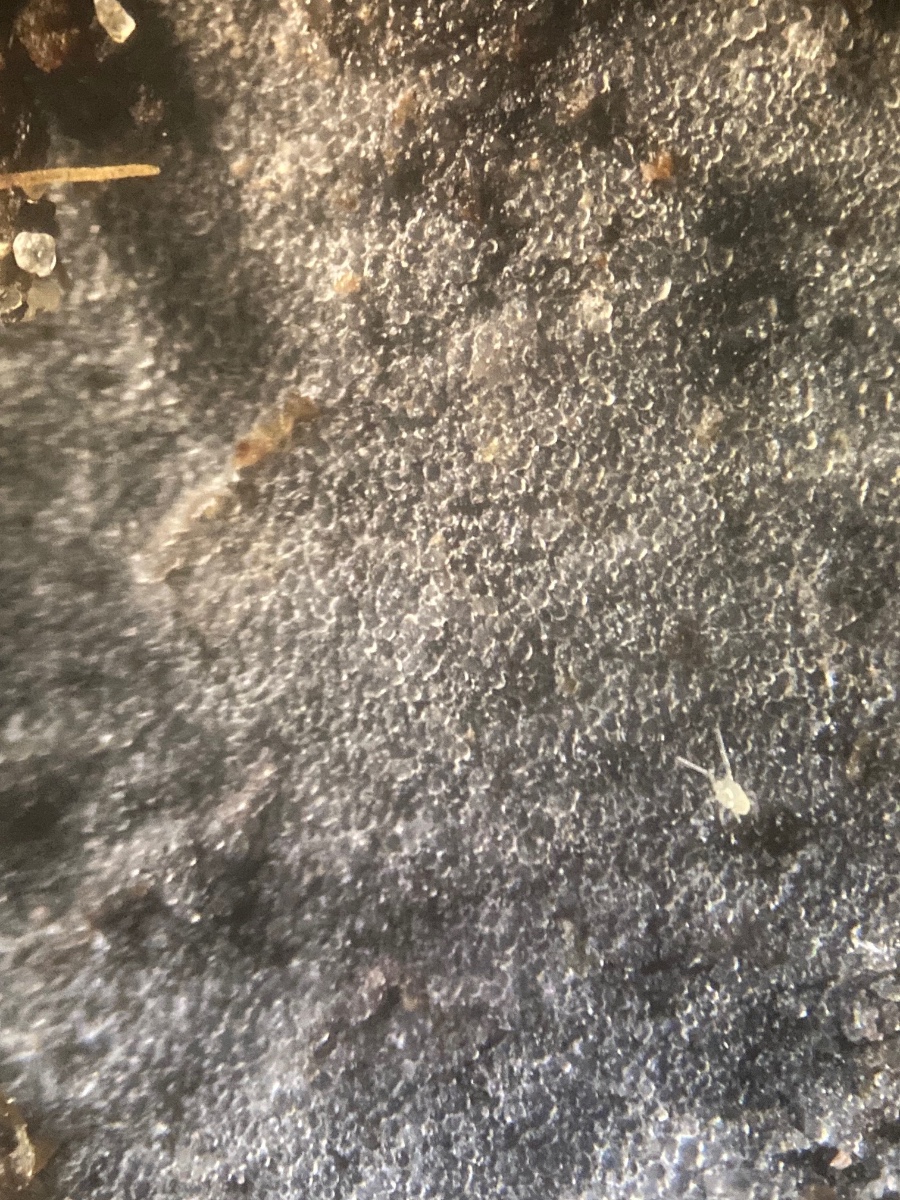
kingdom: Fungi
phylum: Basidiomycota
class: Agaricomycetes
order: Auriculariales
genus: Stypella
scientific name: Stypella crystallina
